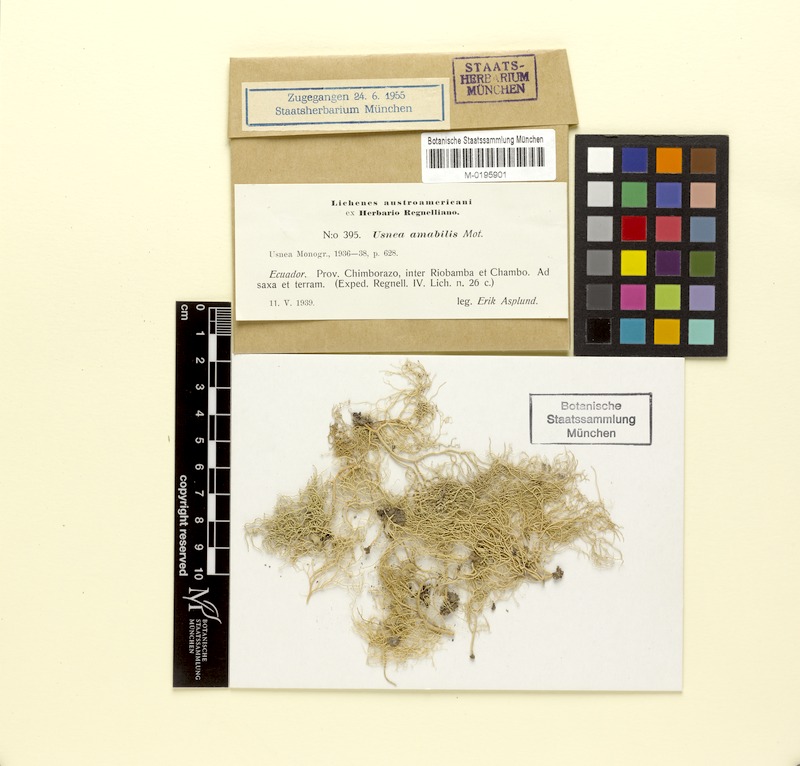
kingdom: Fungi
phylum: Ascomycota
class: Lecanoromycetes
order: Lecanorales
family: Parmeliaceae
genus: Usnea
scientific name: Usnea amabilis
